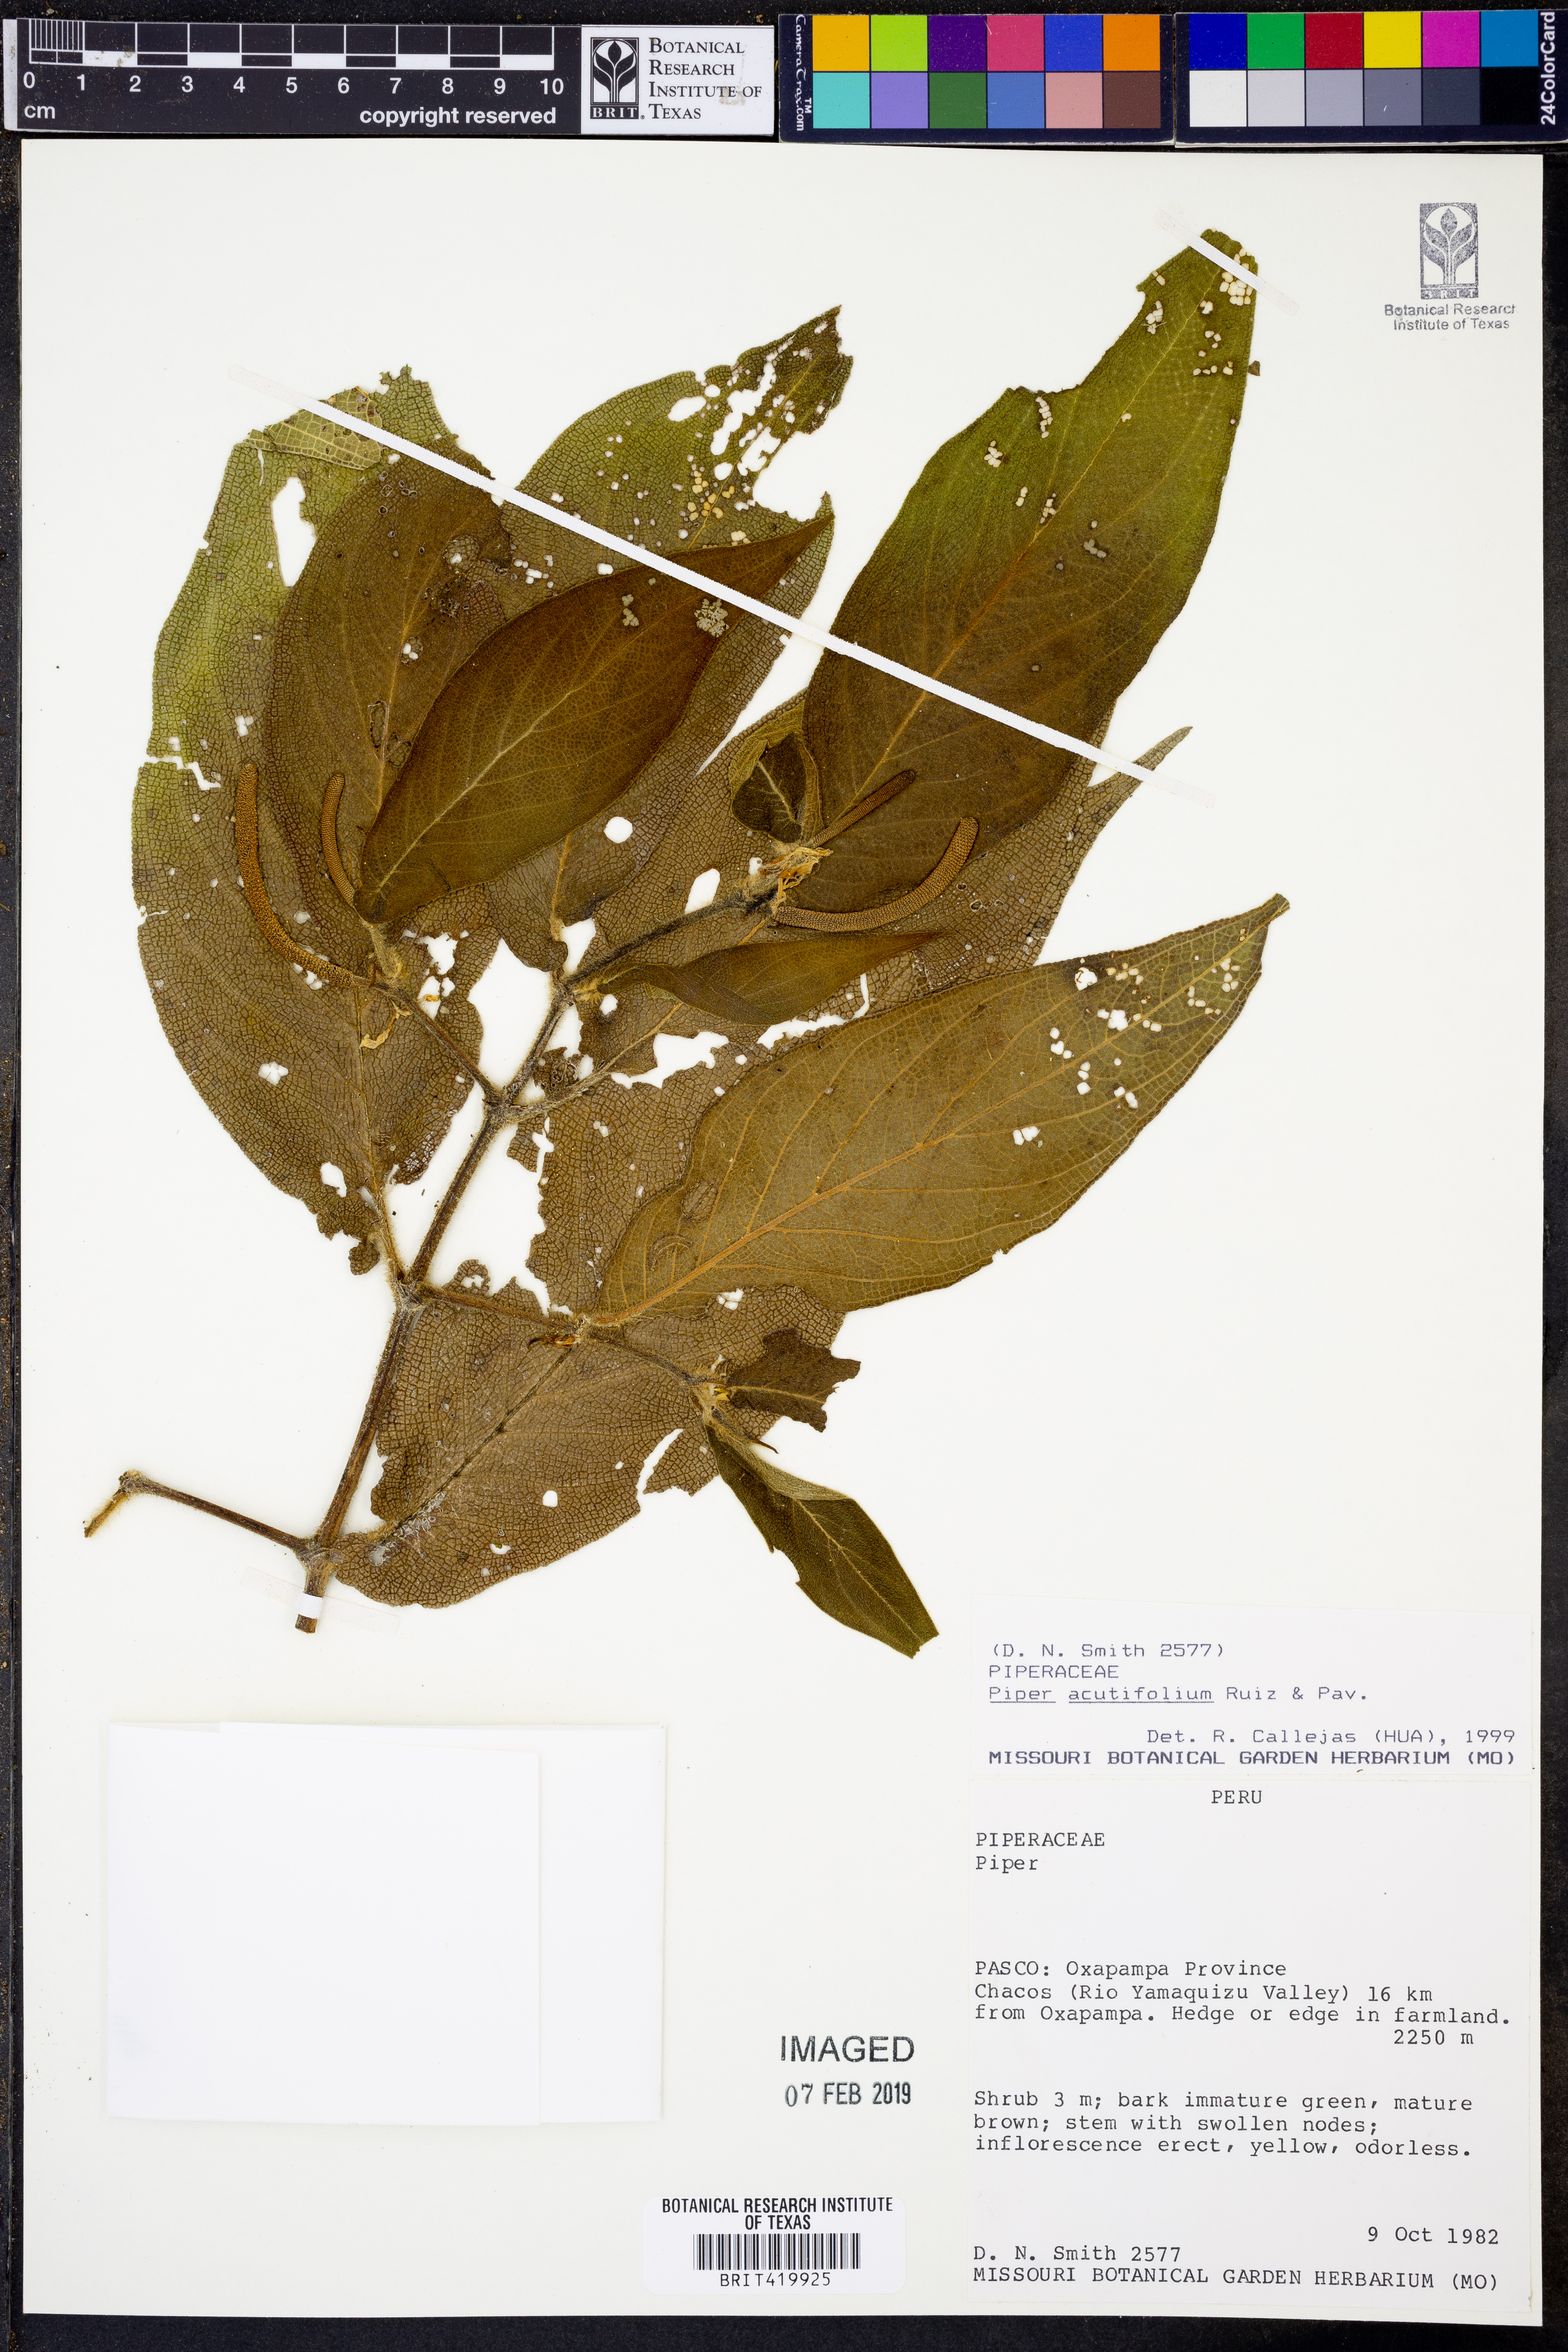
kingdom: Plantae
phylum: Tracheophyta
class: Magnoliopsida
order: Piperales
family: Piperaceae
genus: Piper
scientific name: Piper acutifolium
